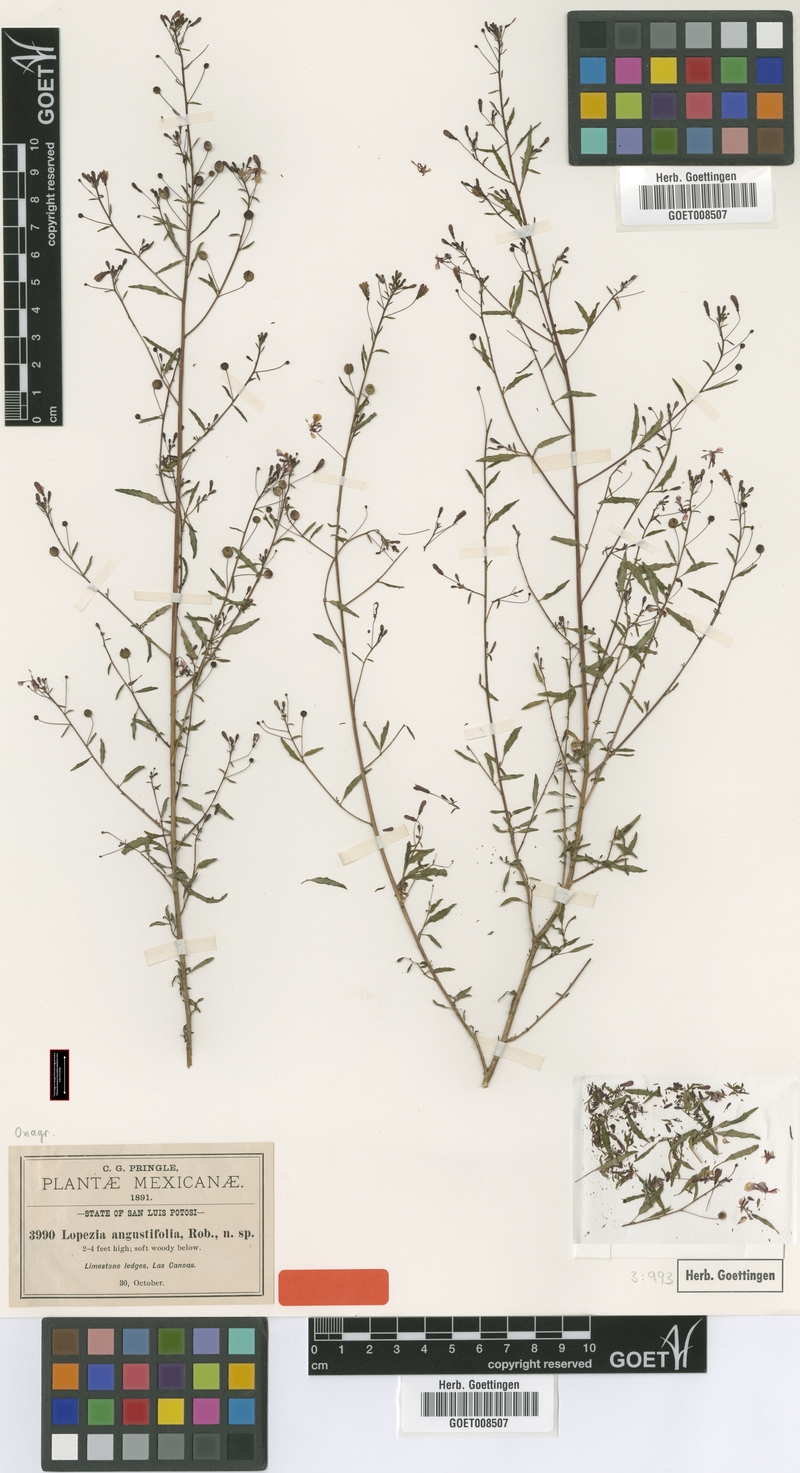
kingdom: Plantae
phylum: Tracheophyta
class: Magnoliopsida
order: Myrtales
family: Onagraceae
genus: Lopezia
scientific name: Lopezia racemosa
